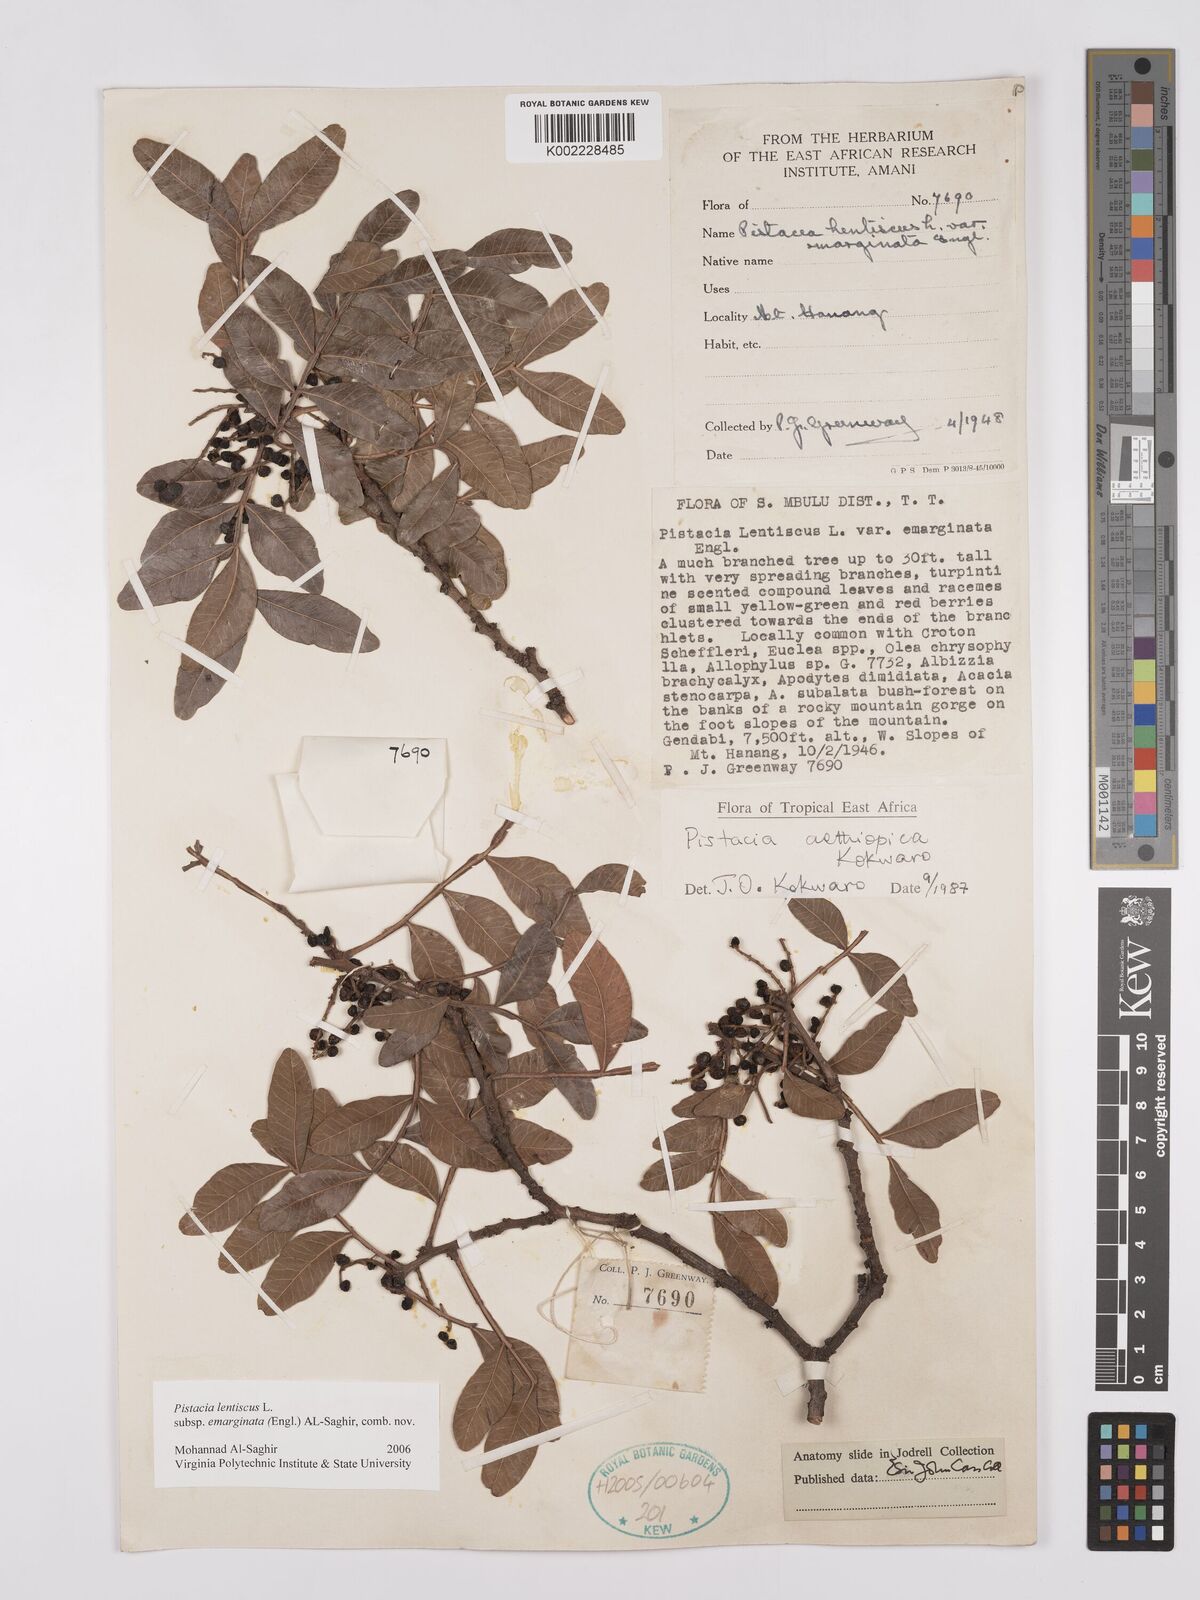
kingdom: Plantae
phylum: Tracheophyta
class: Magnoliopsida
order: Sapindales
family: Anacardiaceae
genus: Pistacia
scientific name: Pistacia lentiscus
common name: Lentisk
